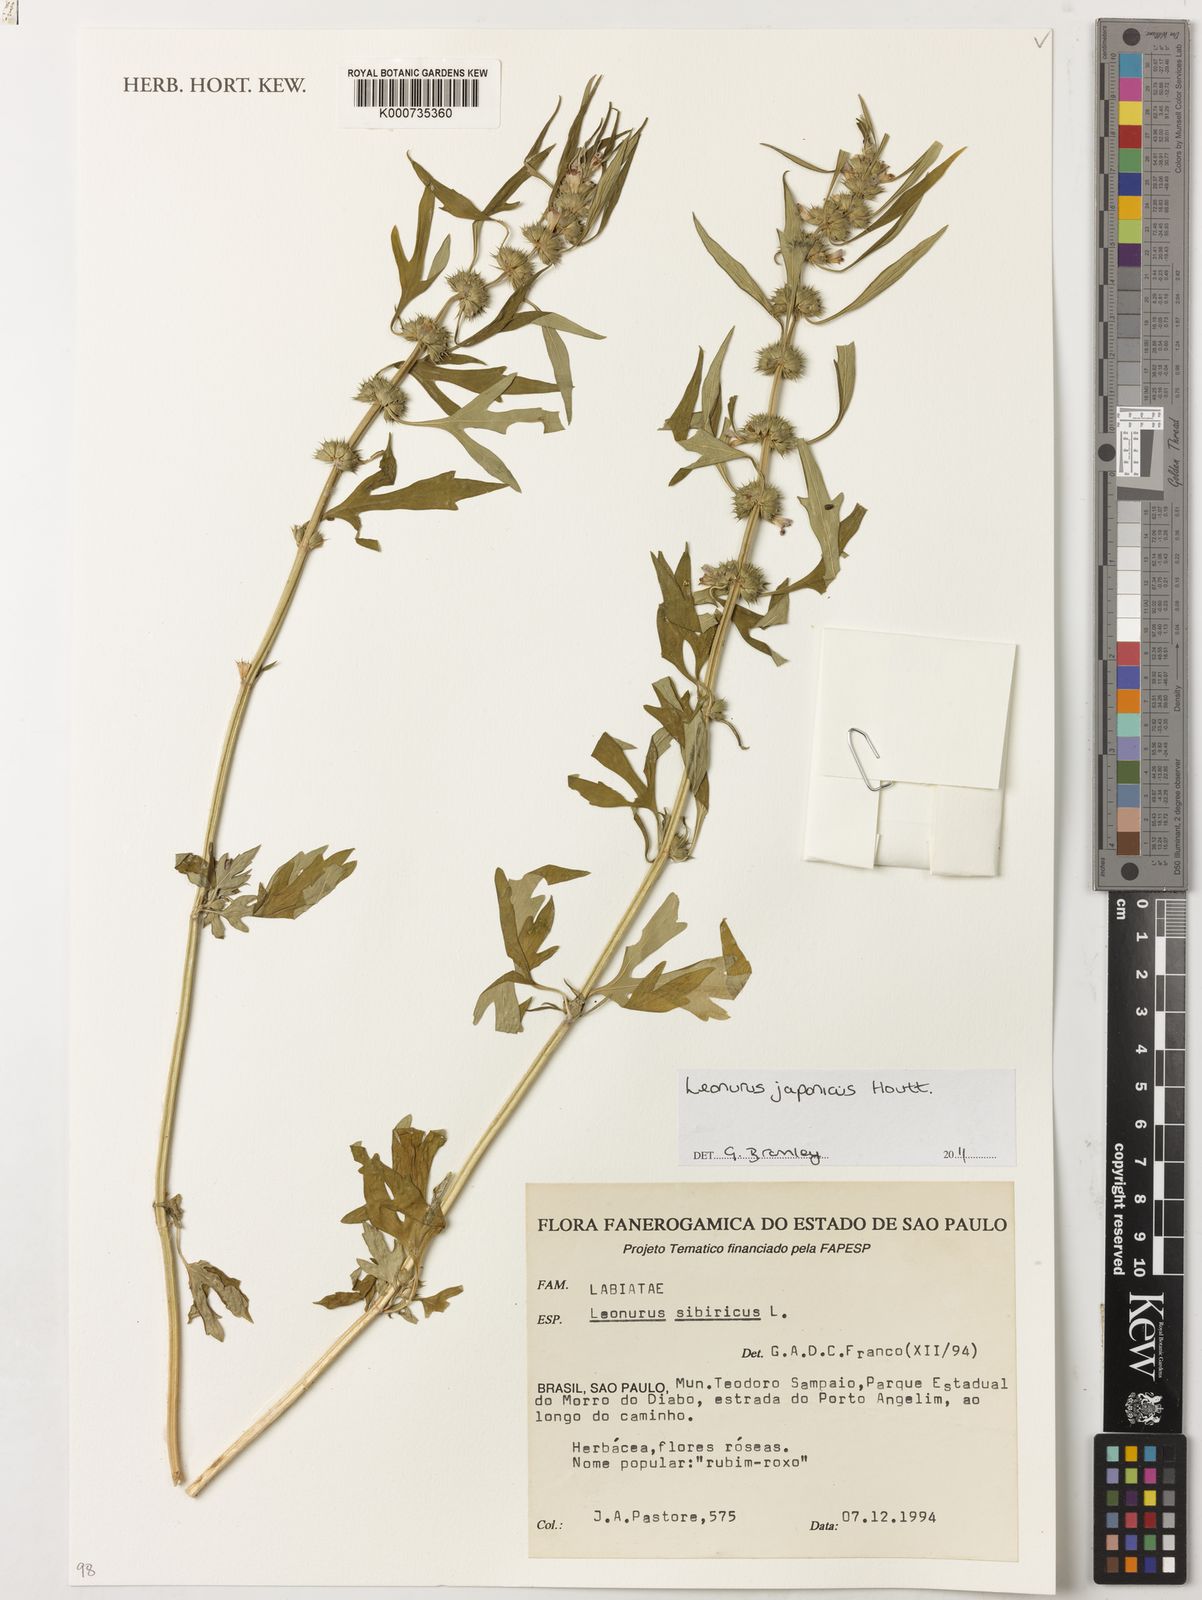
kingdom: Plantae
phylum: Tracheophyta
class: Magnoliopsida
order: Lamiales
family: Lamiaceae
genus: Leonurus
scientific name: Leonurus japonicus
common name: Honeyweed
